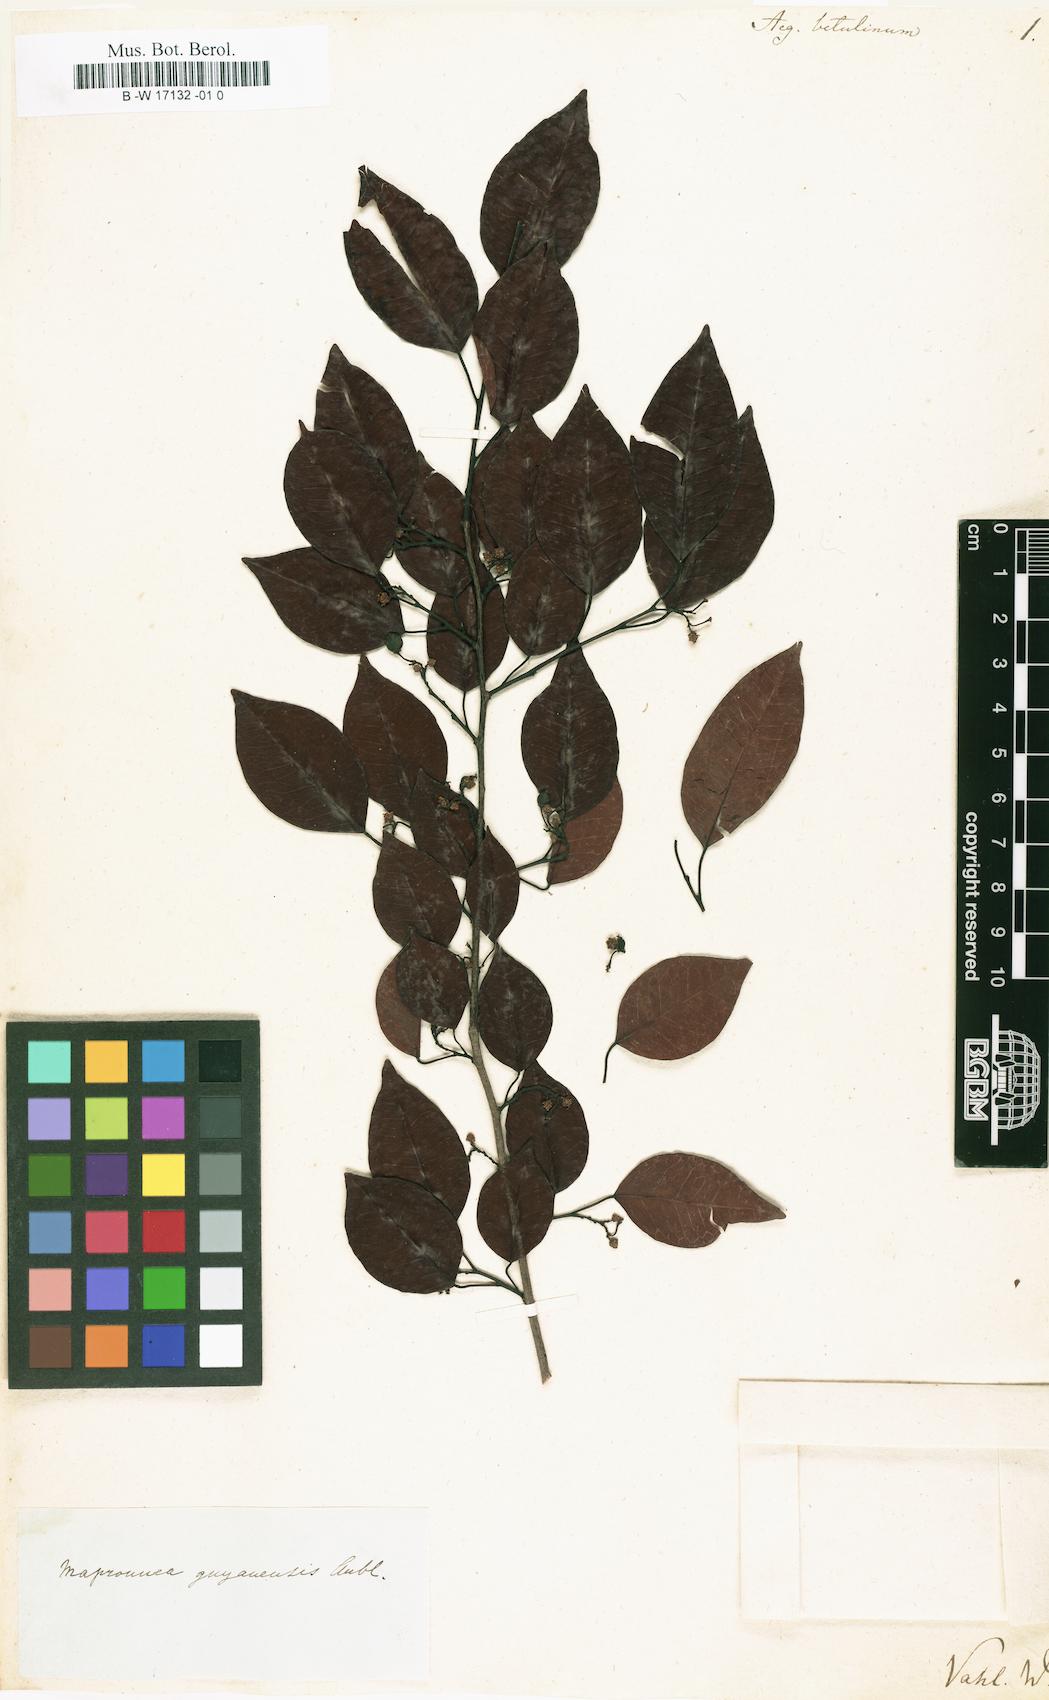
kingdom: Plantae
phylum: Tracheophyta
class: Magnoliopsida
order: Malpighiales
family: Euphorbiaceae
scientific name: Euphorbiaceae
